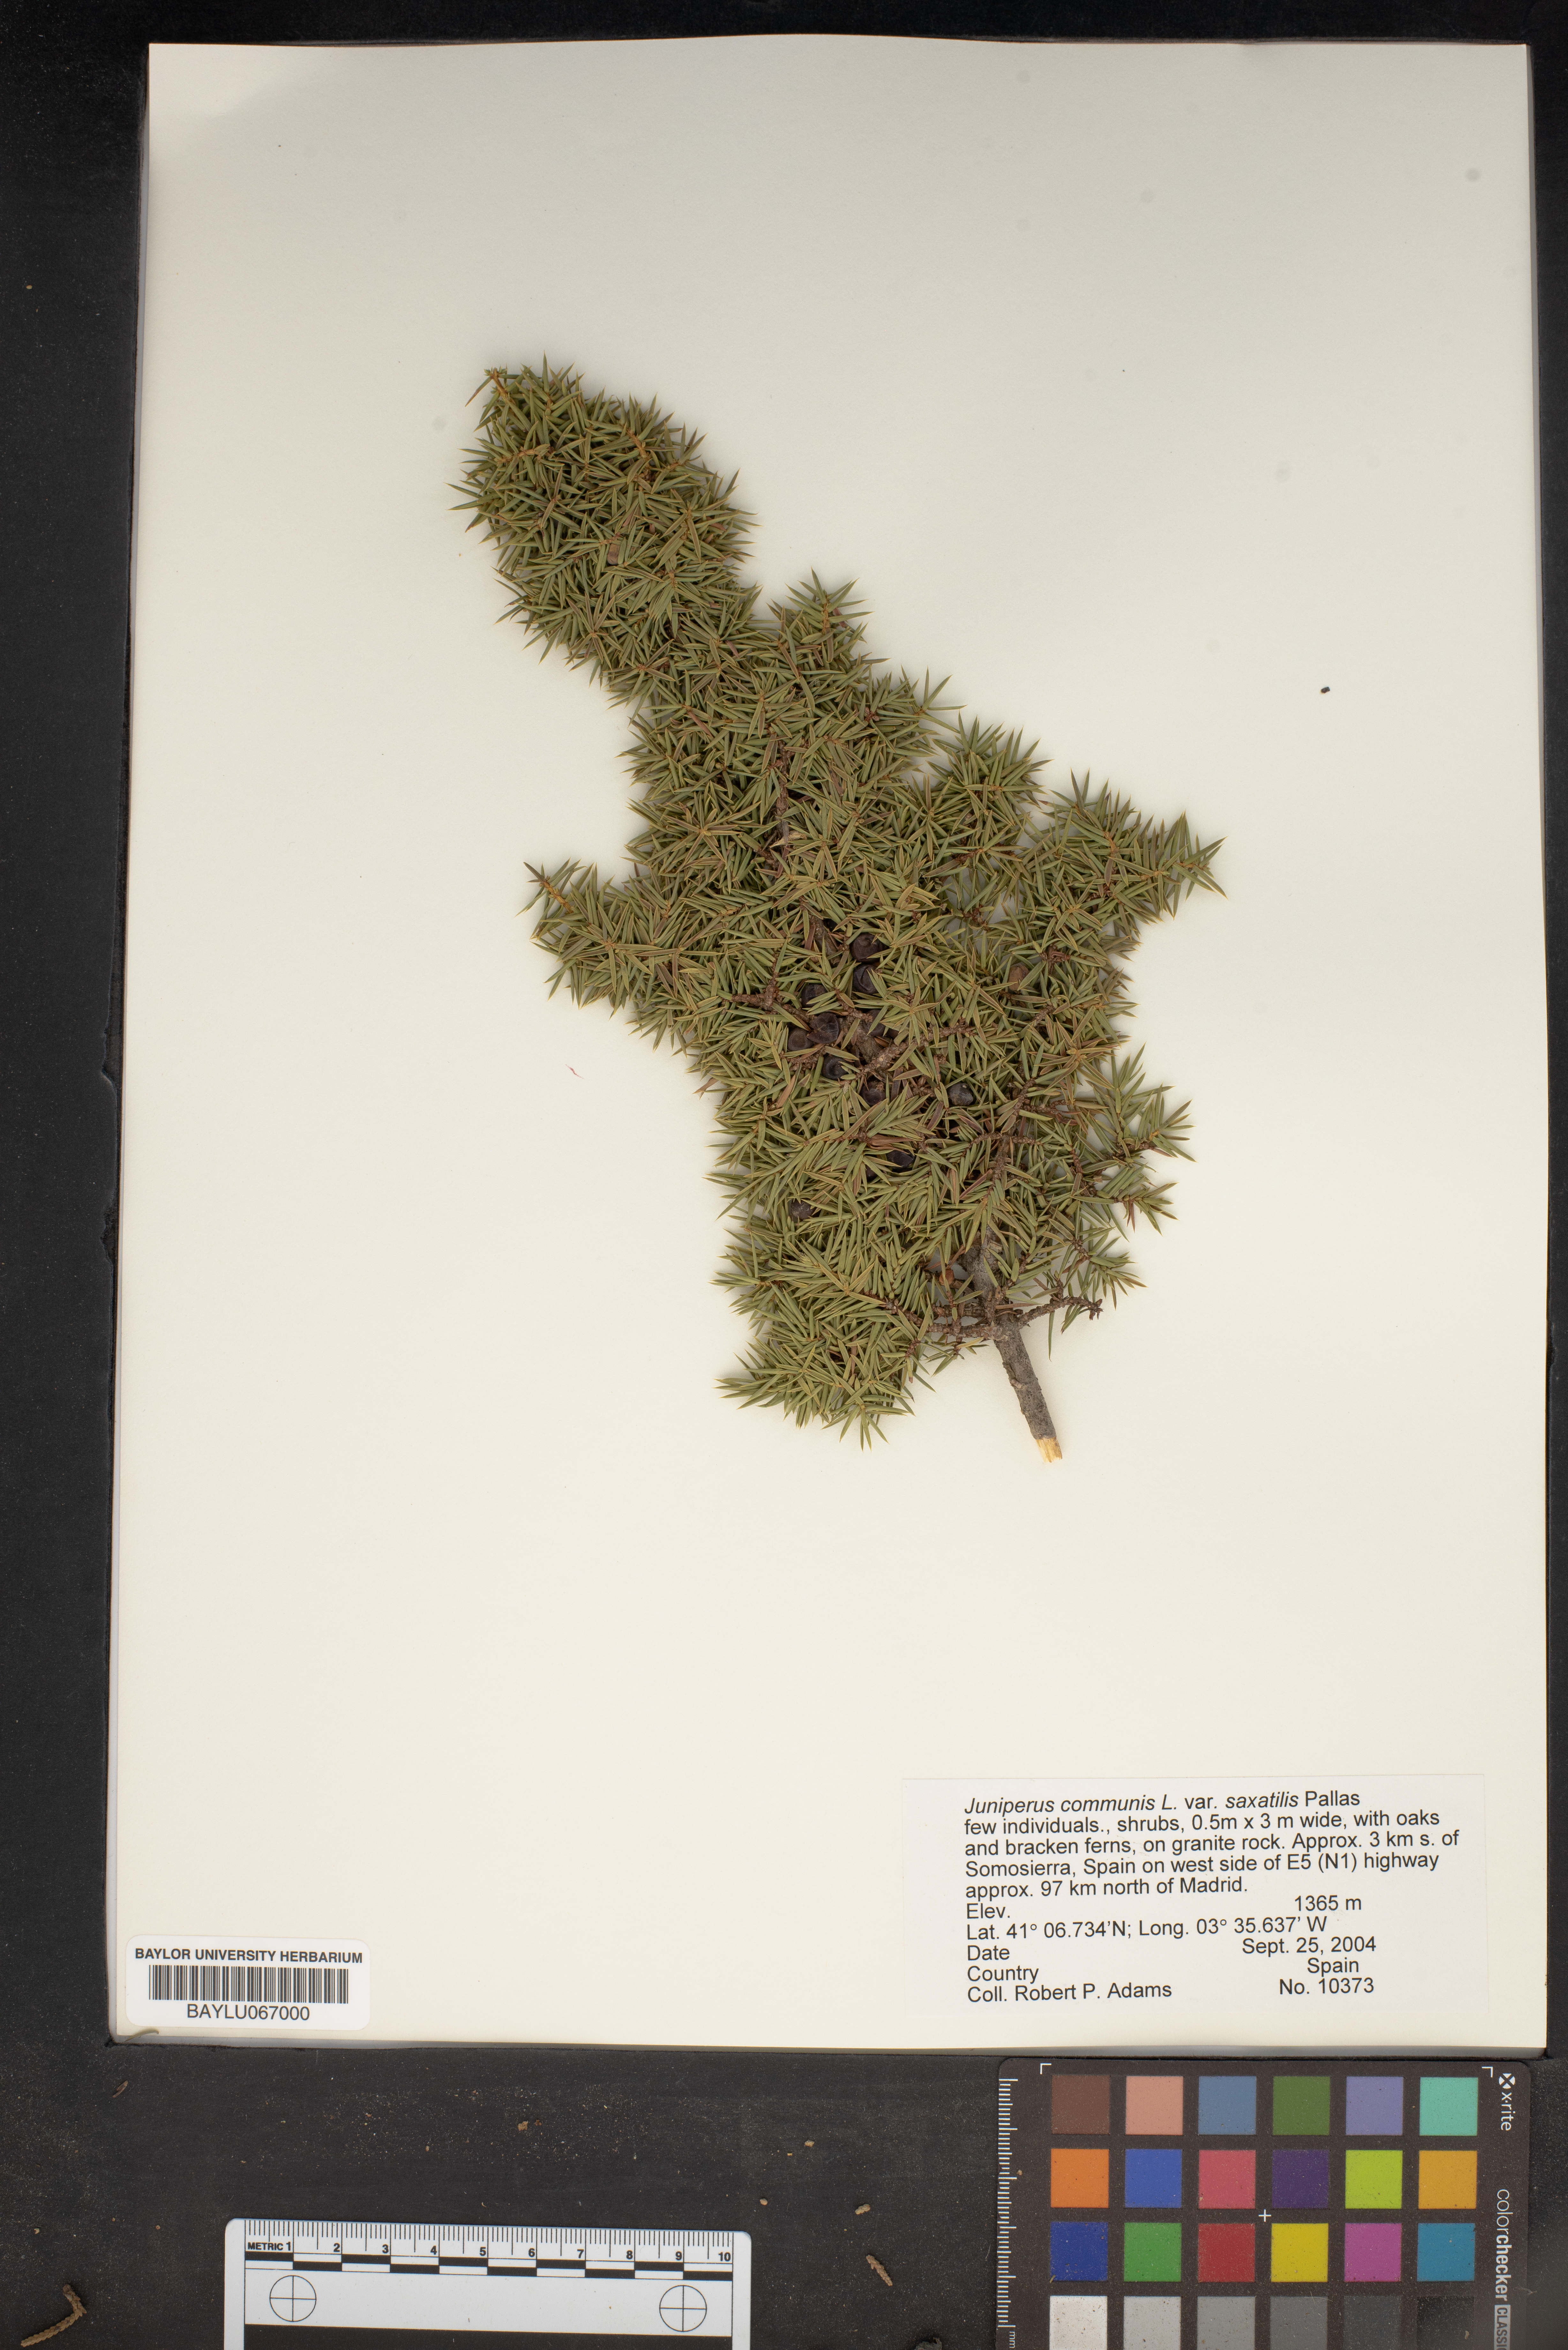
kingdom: Plantae
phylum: Tracheophyta
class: Pinopsida
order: Pinales
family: Cupressaceae
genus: Juniperus
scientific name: Juniperus communis
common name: Common juniper
